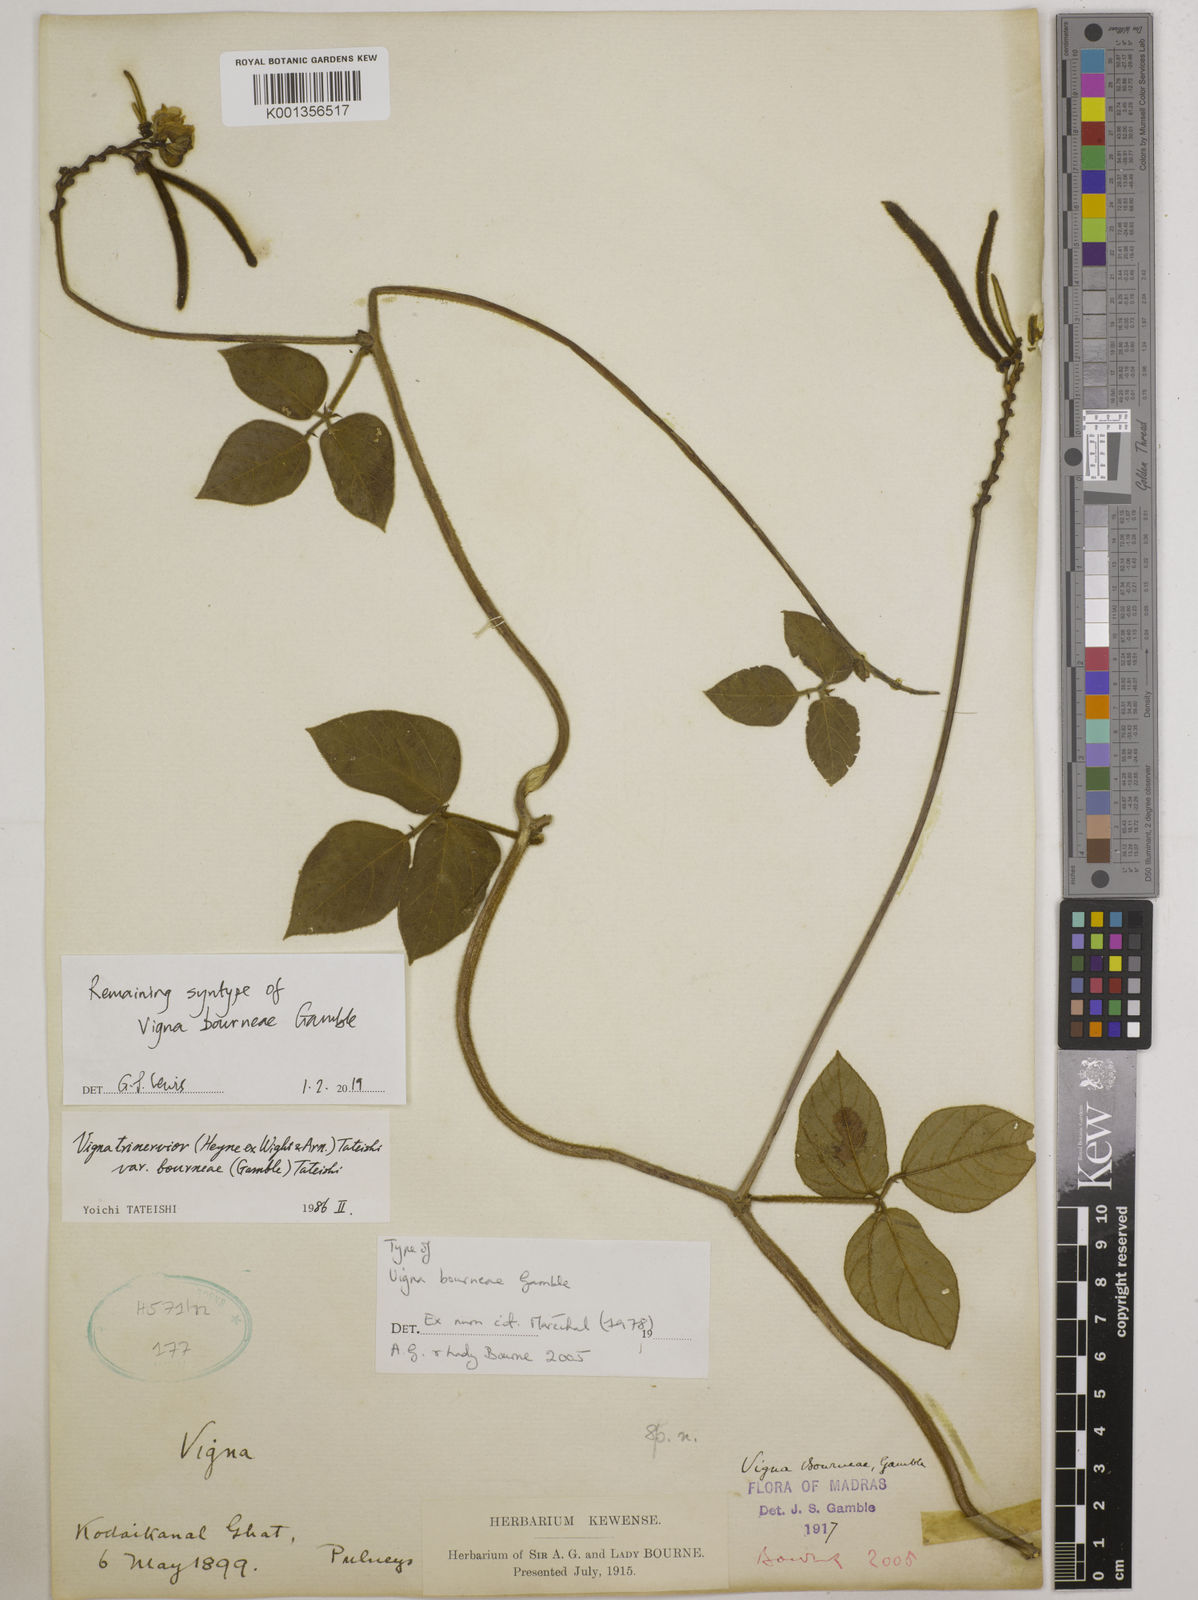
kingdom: Plantae
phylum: Tracheophyta
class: Magnoliopsida
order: Fabales
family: Fabaceae
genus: Vigna
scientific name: Vigna
